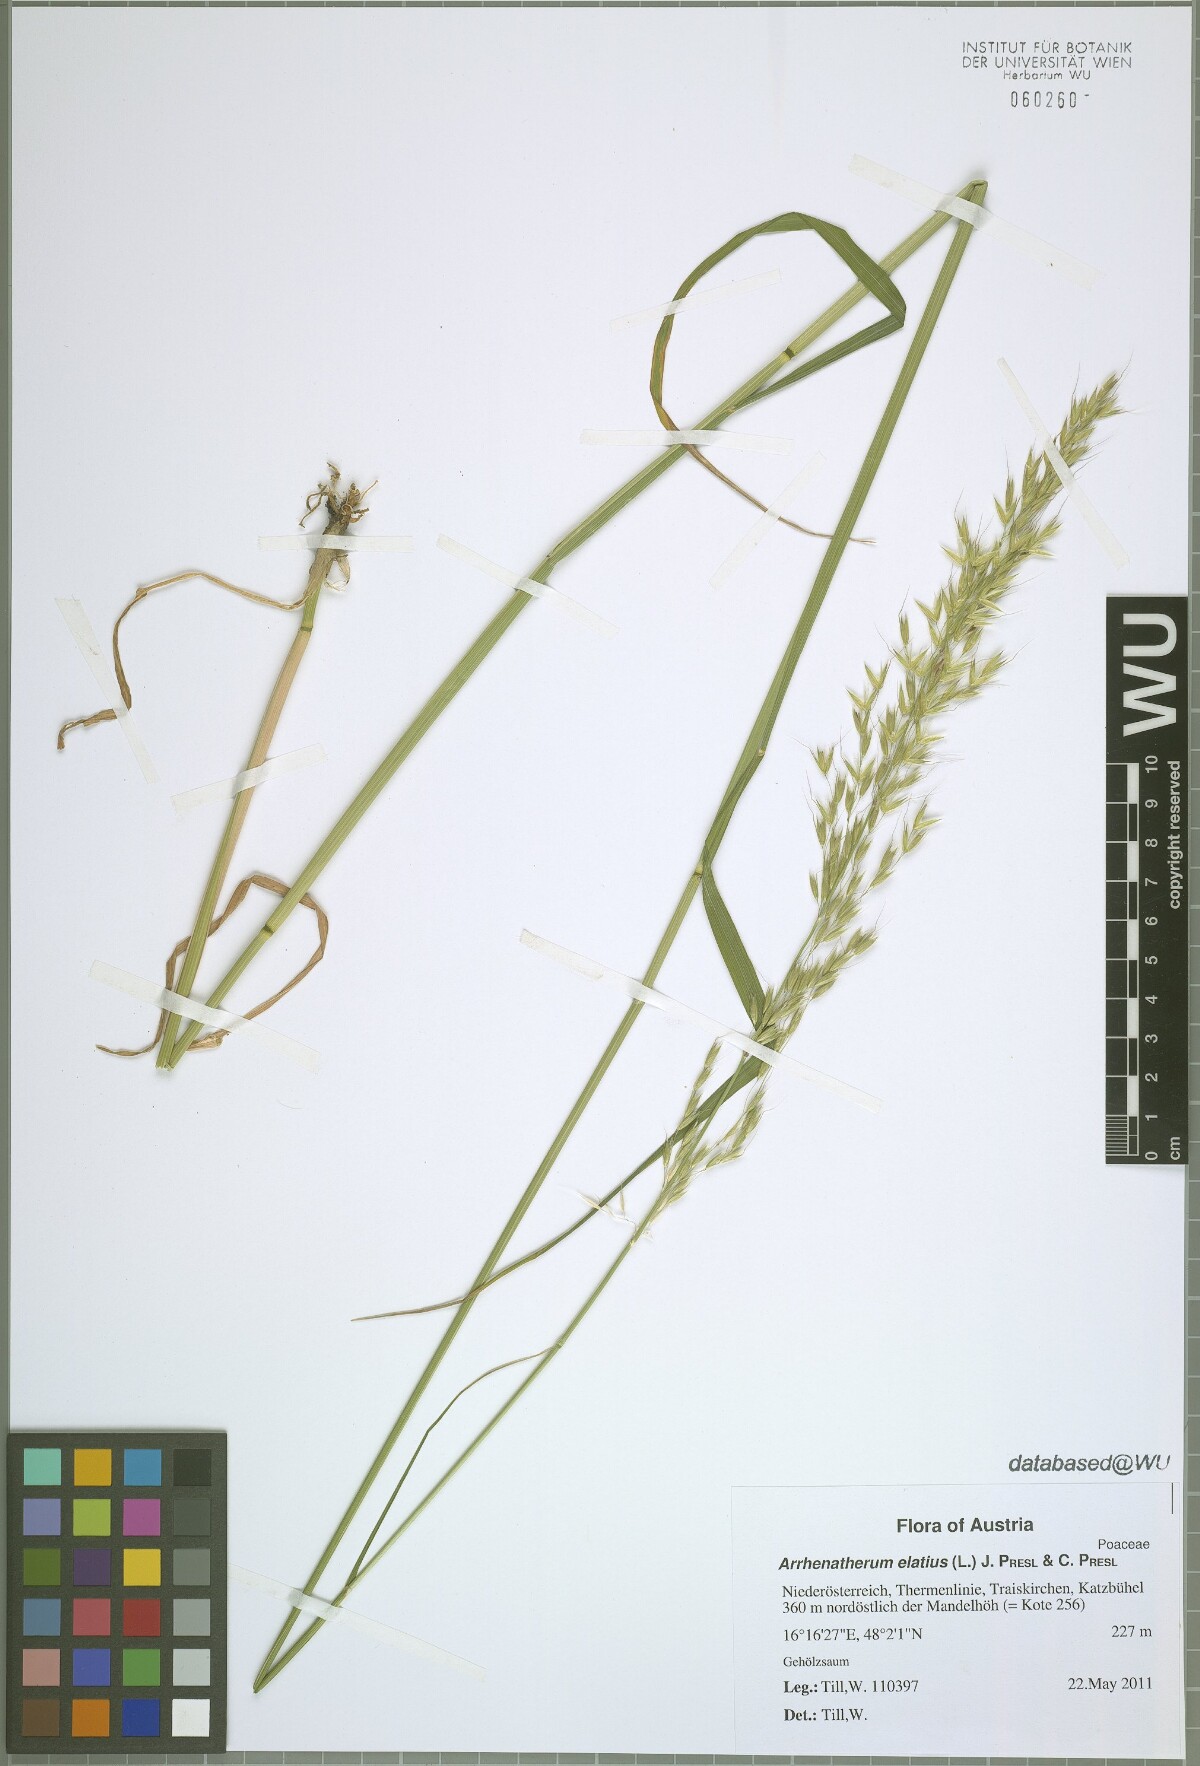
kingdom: Plantae
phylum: Tracheophyta
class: Liliopsida
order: Poales
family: Poaceae
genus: Arrhenatherum
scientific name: Arrhenatherum elatius
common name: Tall oatgrass
